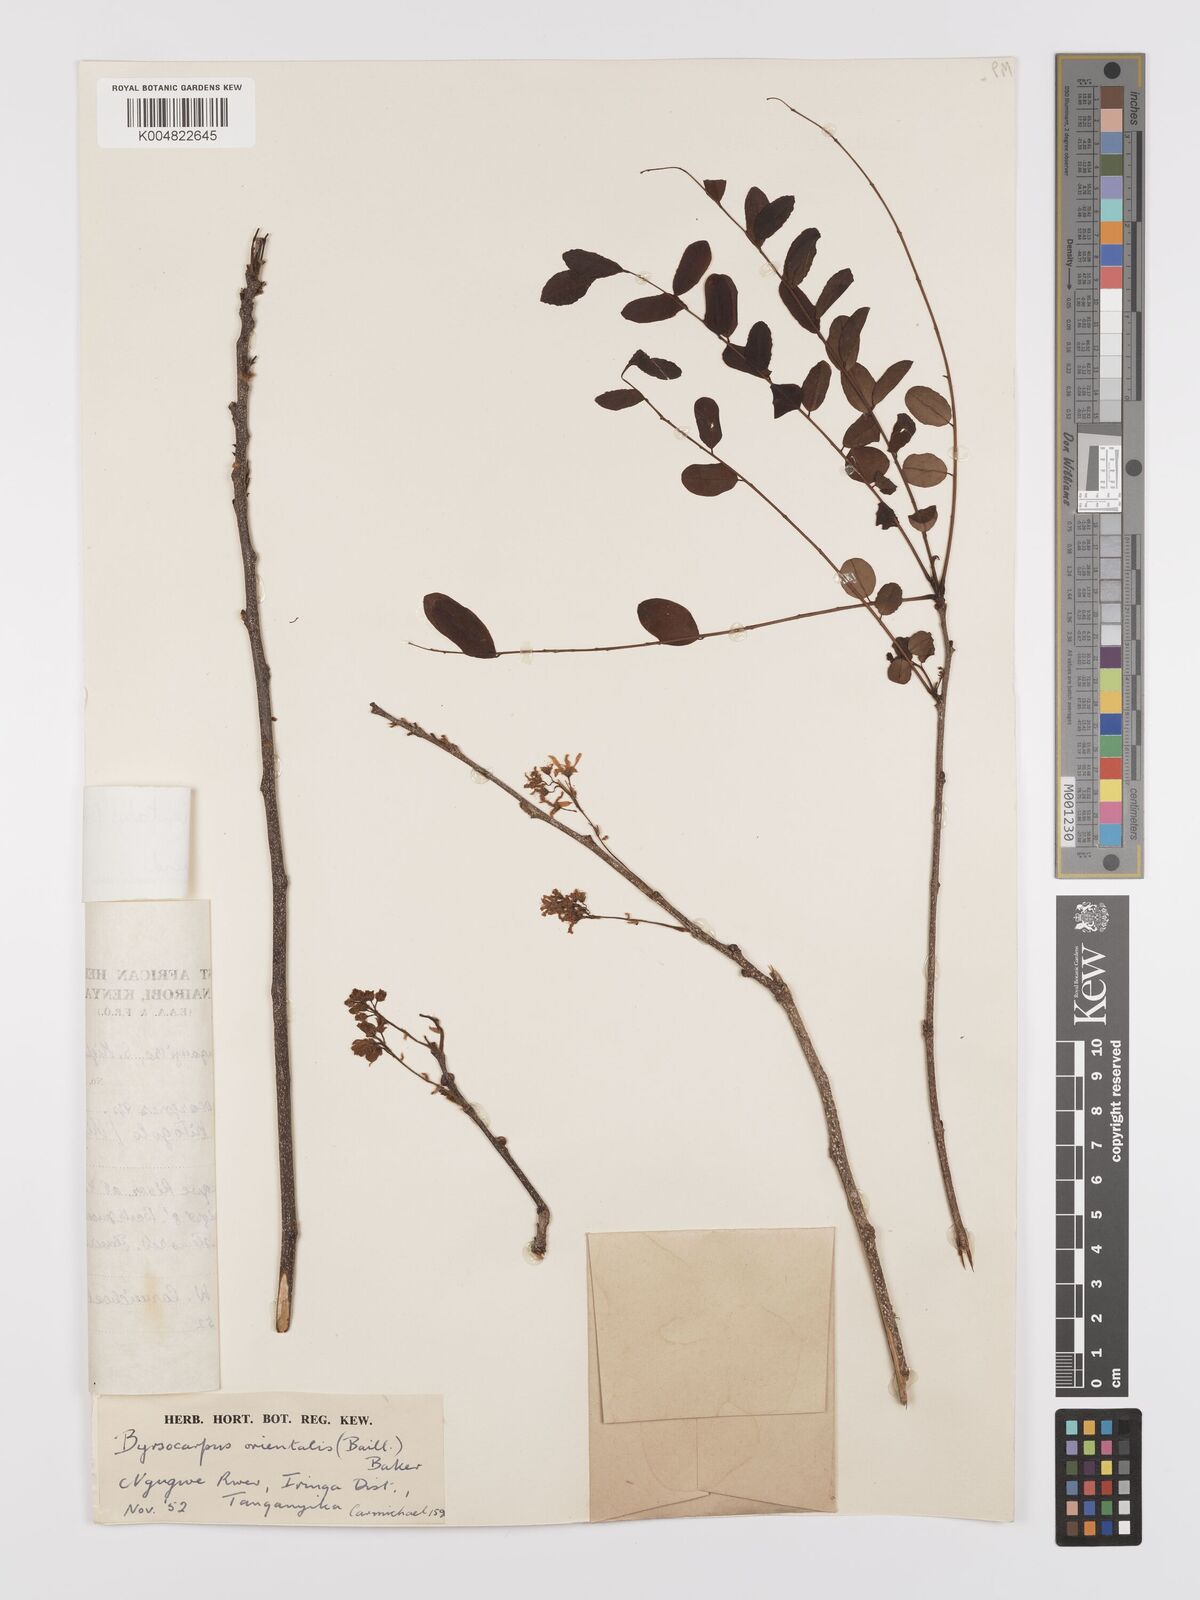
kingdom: Plantae
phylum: Tracheophyta
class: Magnoliopsida
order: Oxalidales
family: Connaraceae
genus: Rourea
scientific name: Rourea orientalis
